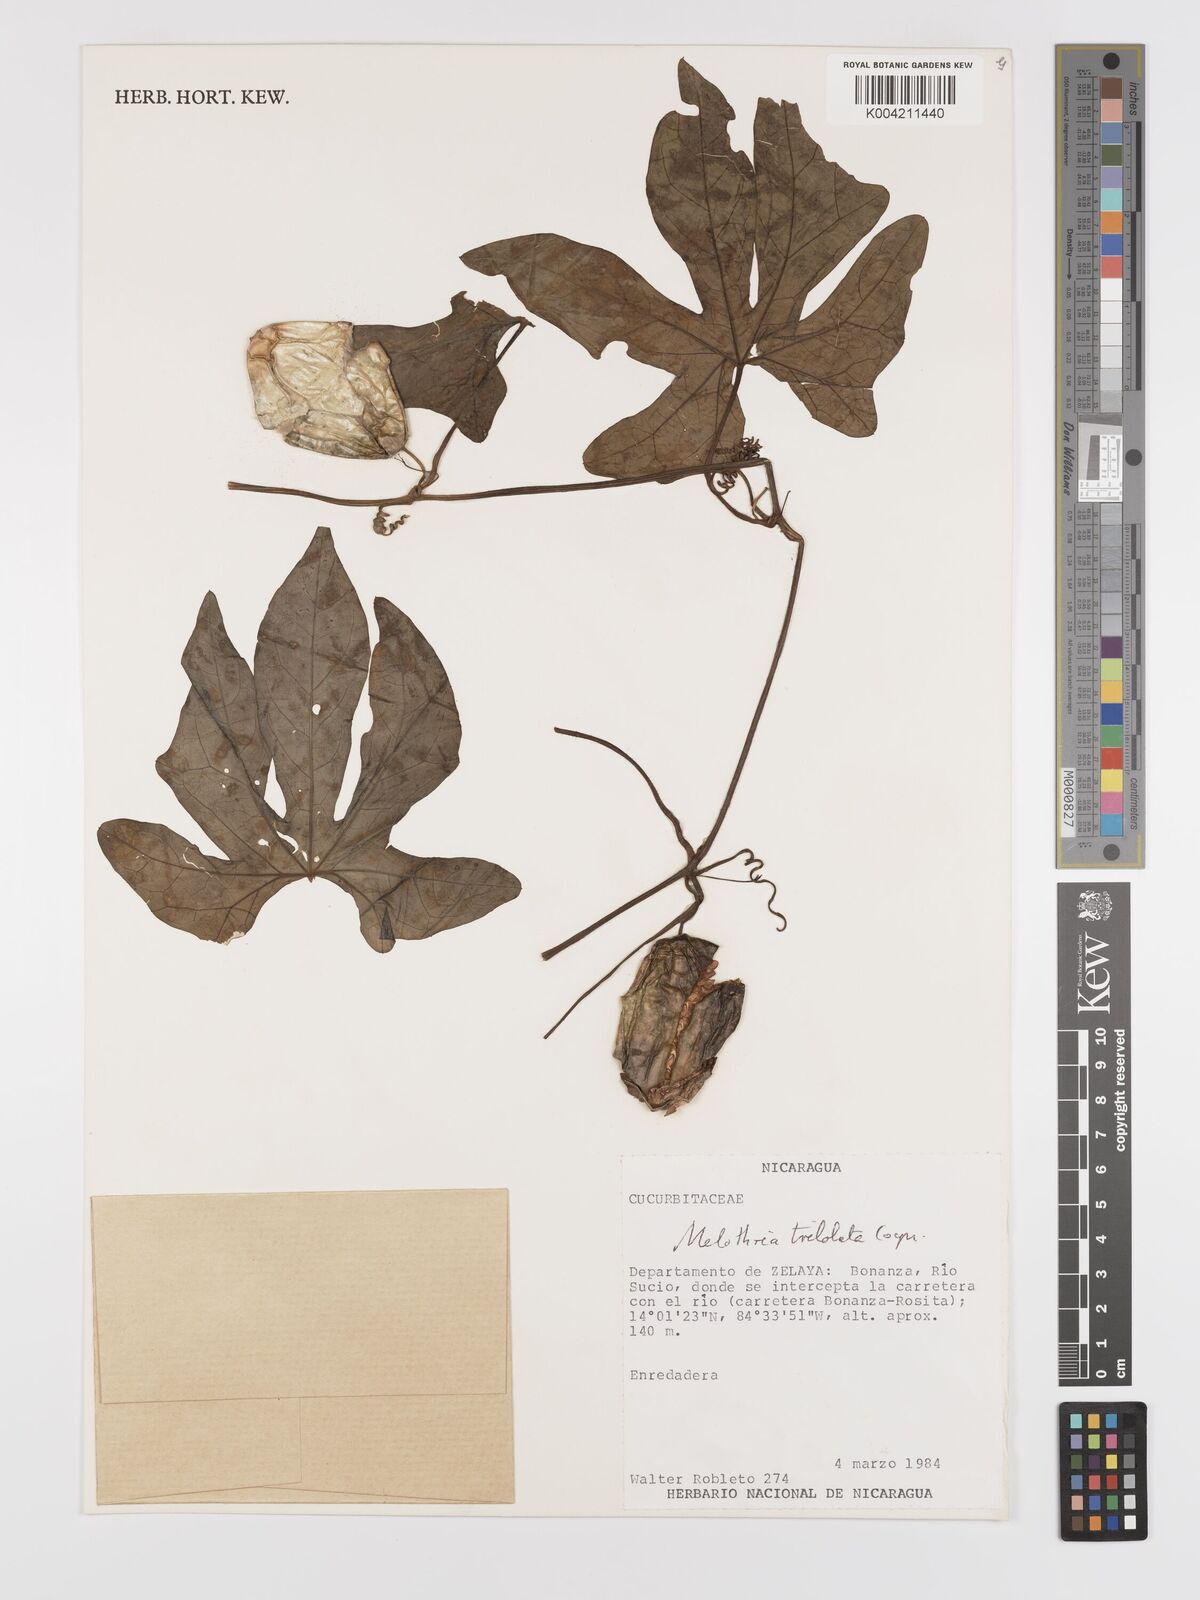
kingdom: Plantae
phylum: Tracheophyta
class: Magnoliopsida
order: Cucurbitales
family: Cucurbitaceae
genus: Melothria
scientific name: Melothria trilobata
